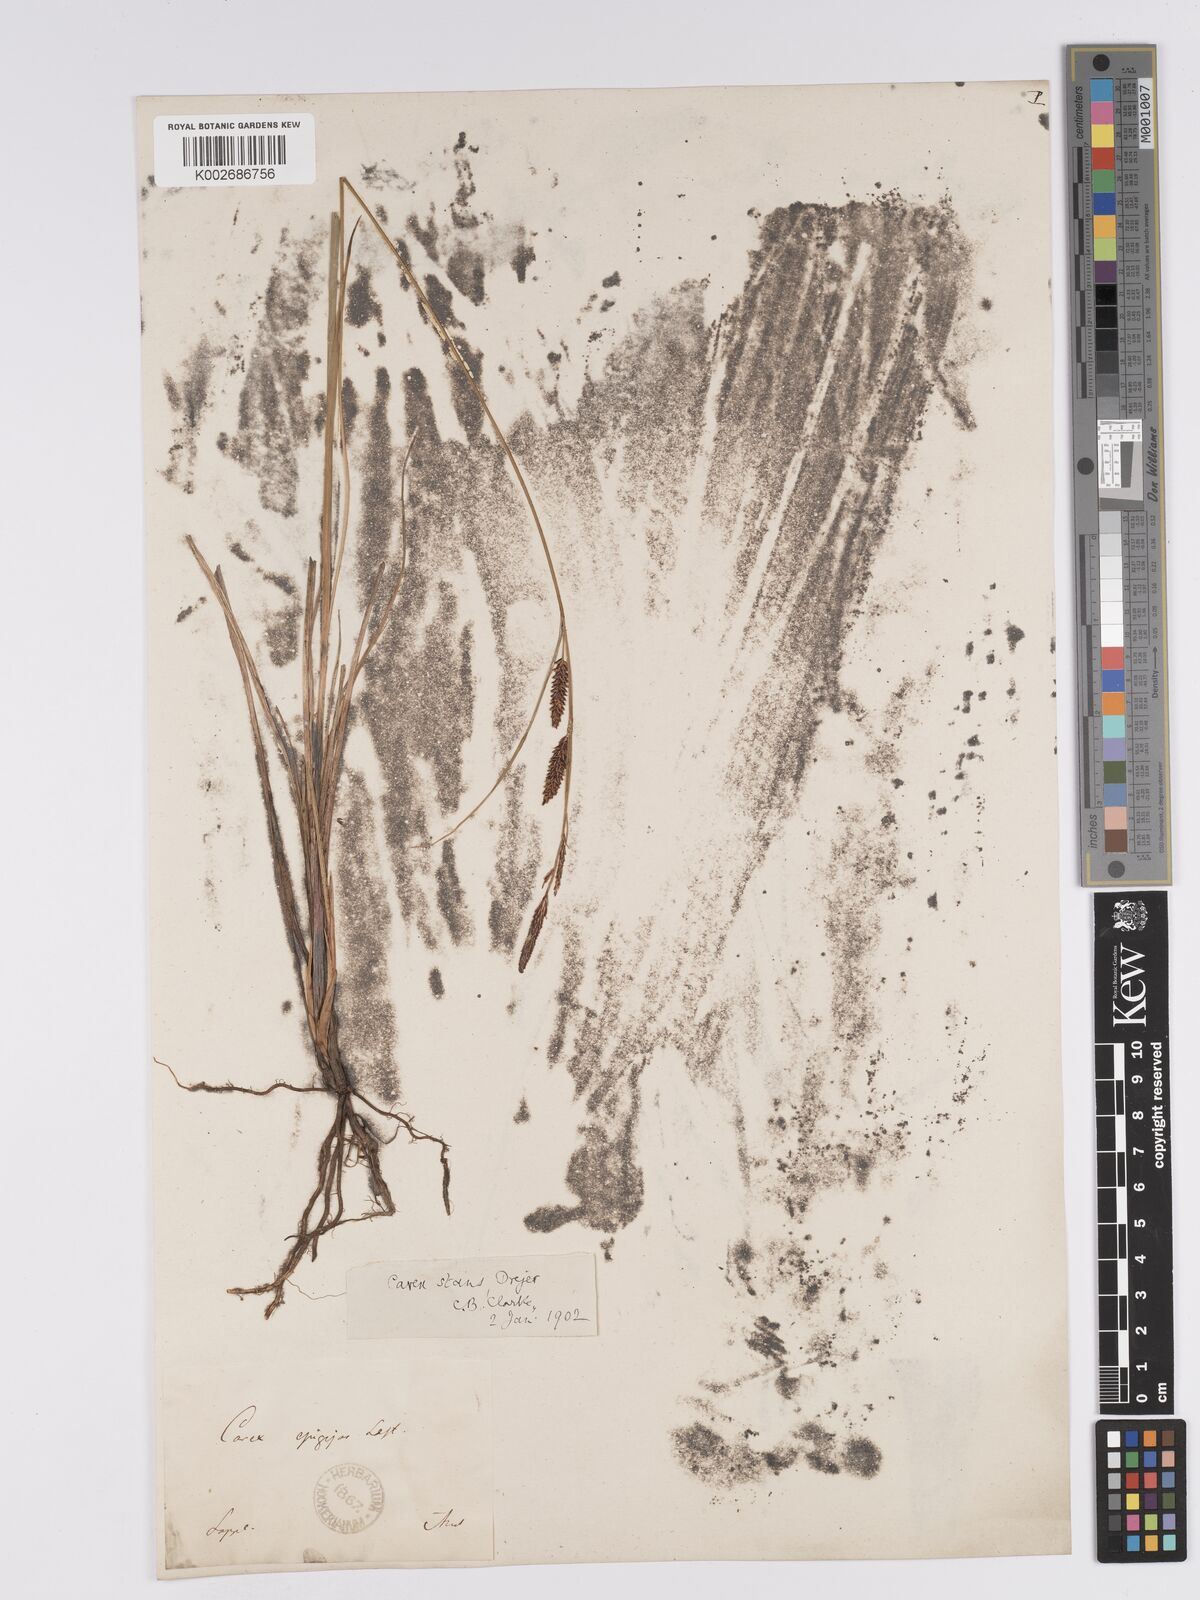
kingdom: Plantae
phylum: Tracheophyta
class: Liliopsida
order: Poales
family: Cyperaceae
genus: Carex
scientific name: Carex aquatilis
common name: Water sedge
